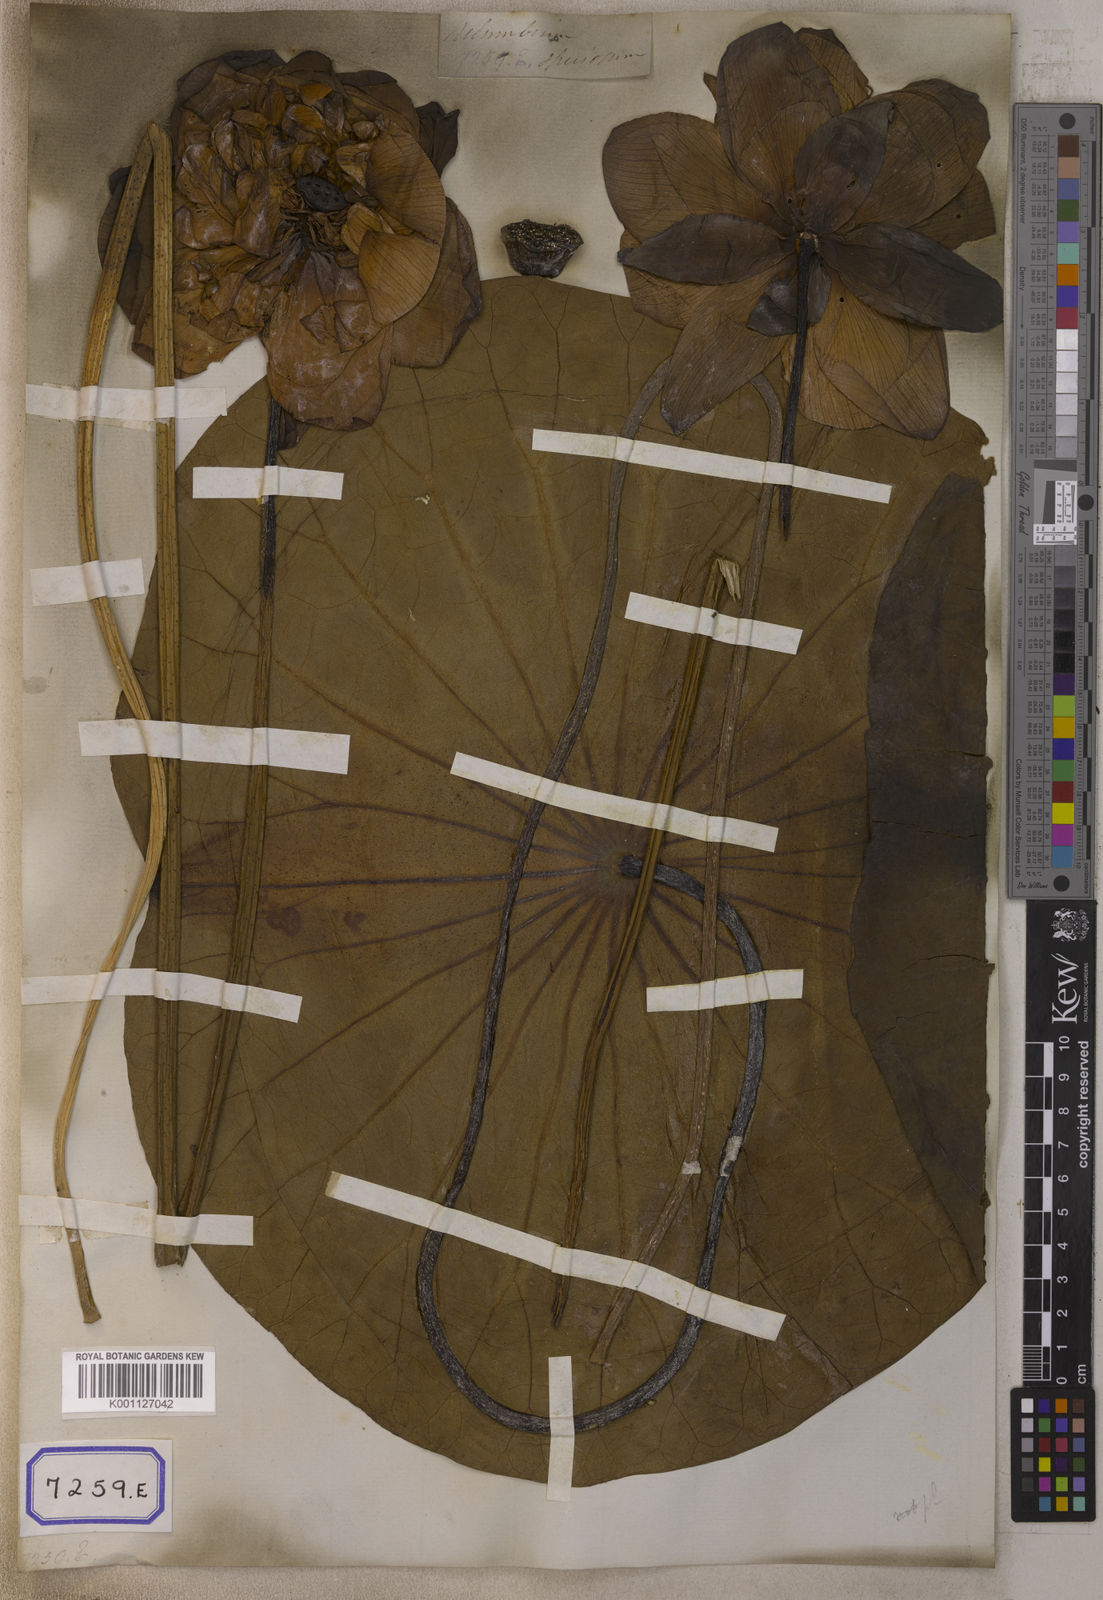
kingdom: Plantae
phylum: Tracheophyta
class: Magnoliopsida
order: Proteales
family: Nelumbonaceae
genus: Nelumbo
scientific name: Nelumbo nucifera
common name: Sacred lotus
